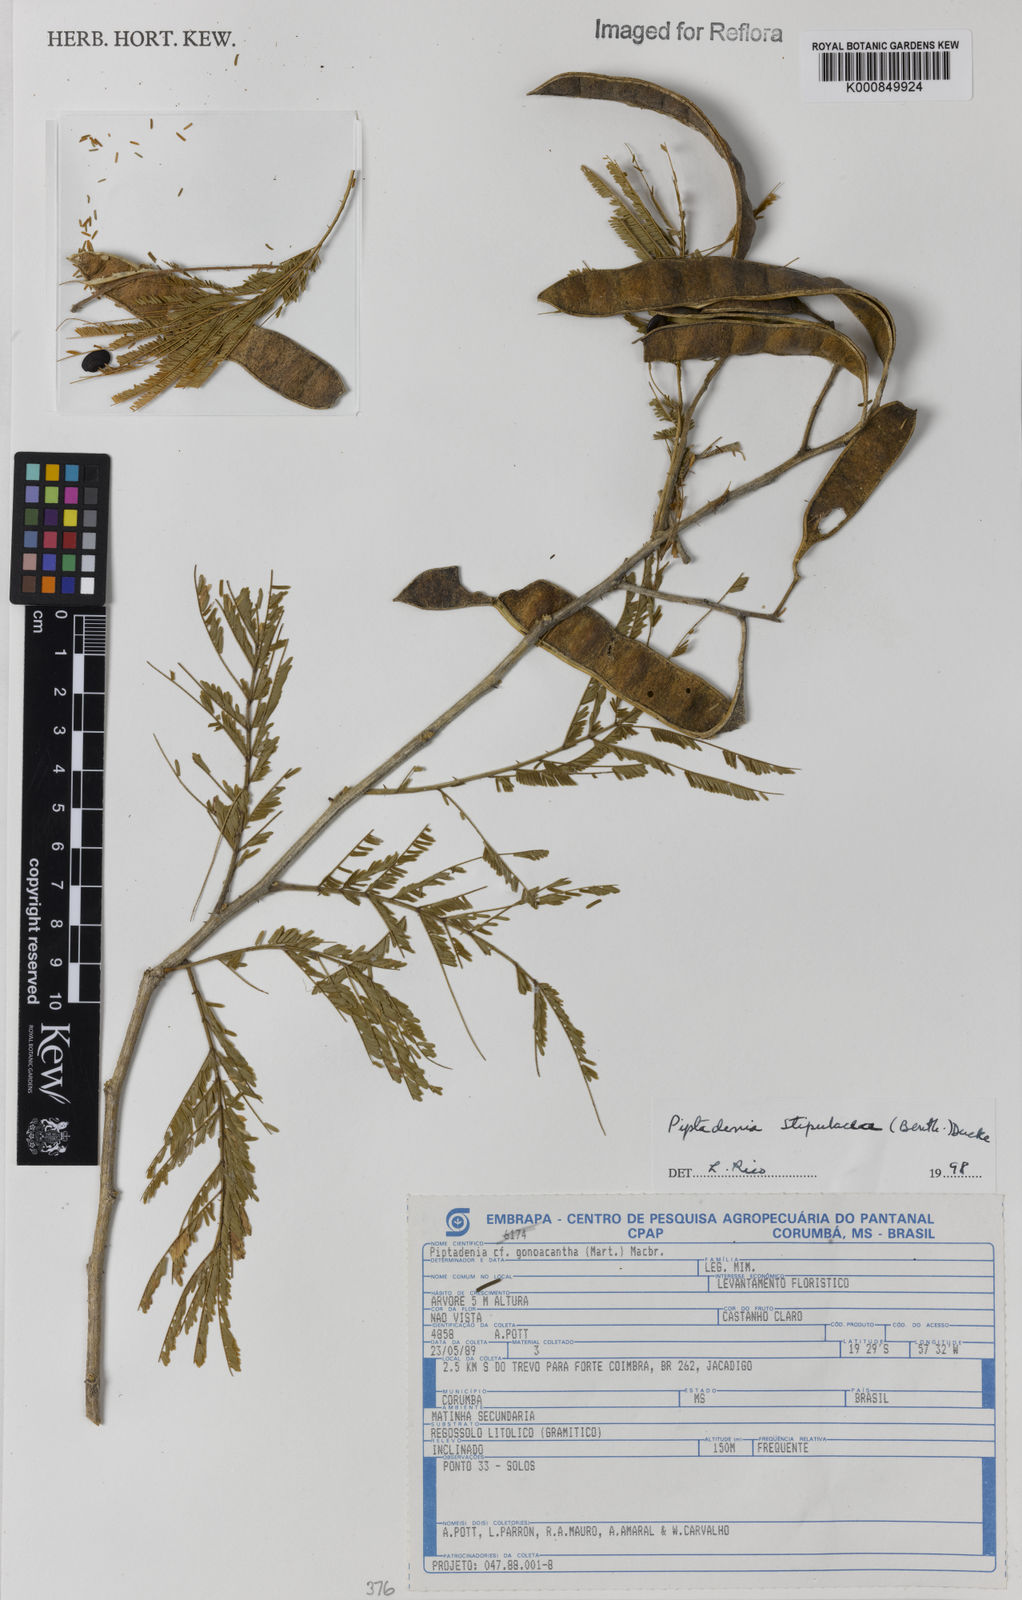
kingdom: Plantae
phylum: Tracheophyta
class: Magnoliopsida
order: Fabales
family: Fabaceae
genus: Piptadenia
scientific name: Piptadenia retusa
